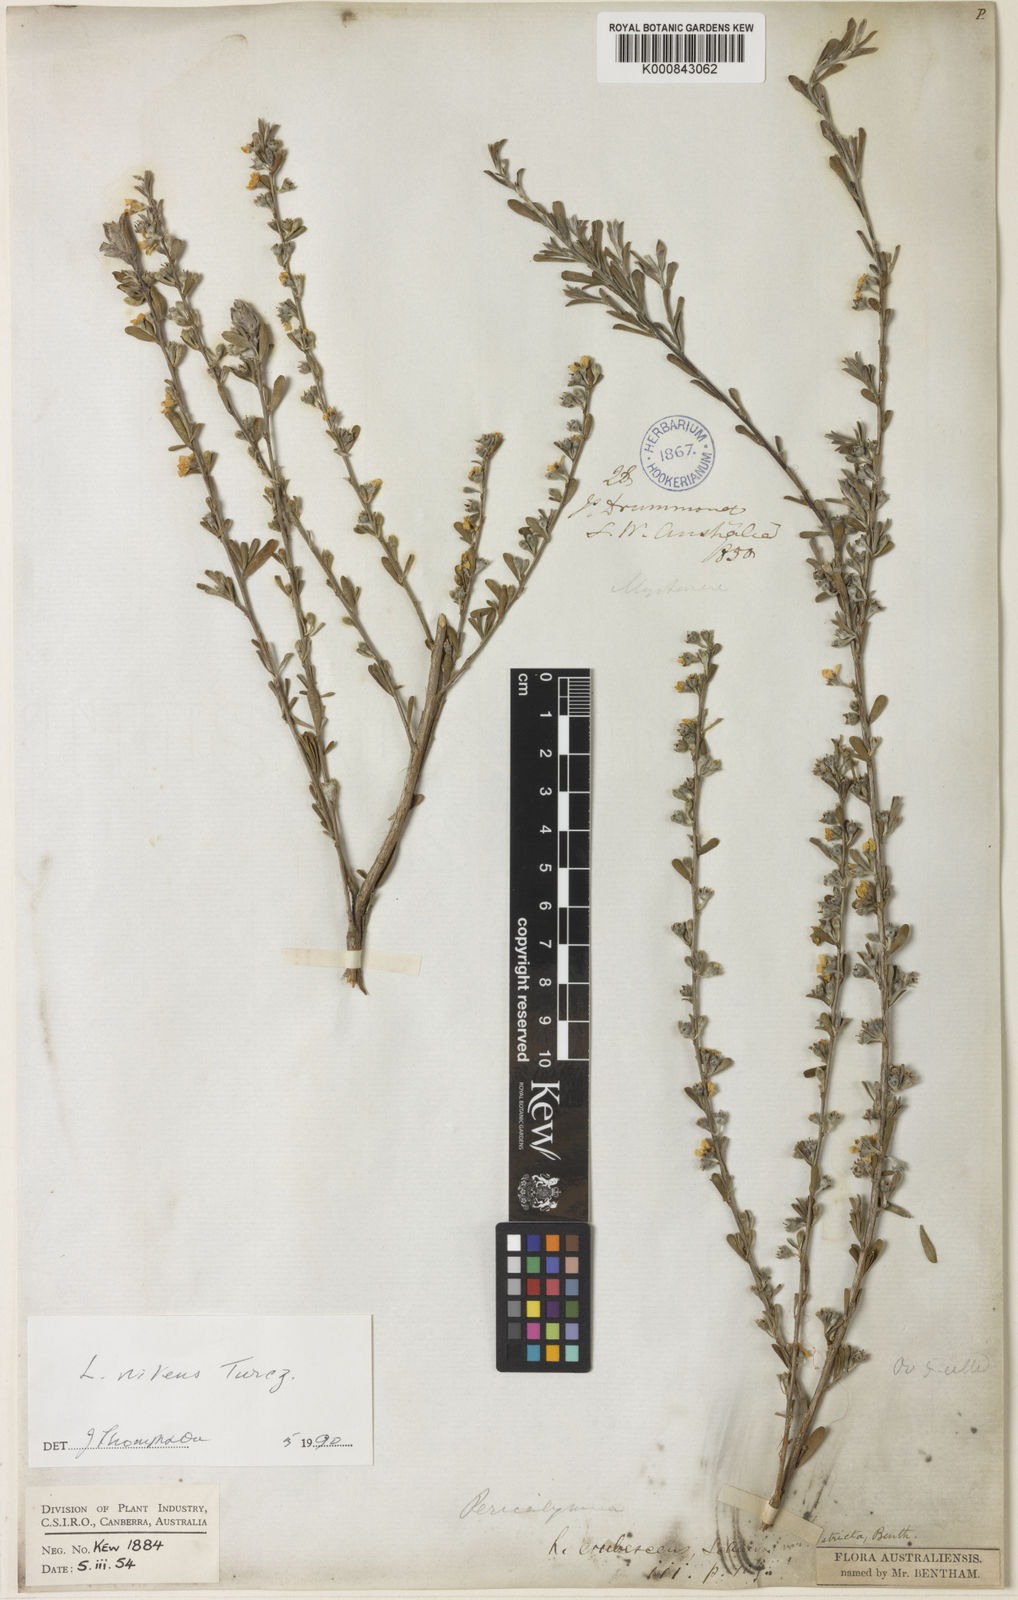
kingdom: Plantae
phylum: Tracheophyta
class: Magnoliopsida
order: Myrtales
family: Myrtaceae
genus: Leptospermum
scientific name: Leptospermum nitens
